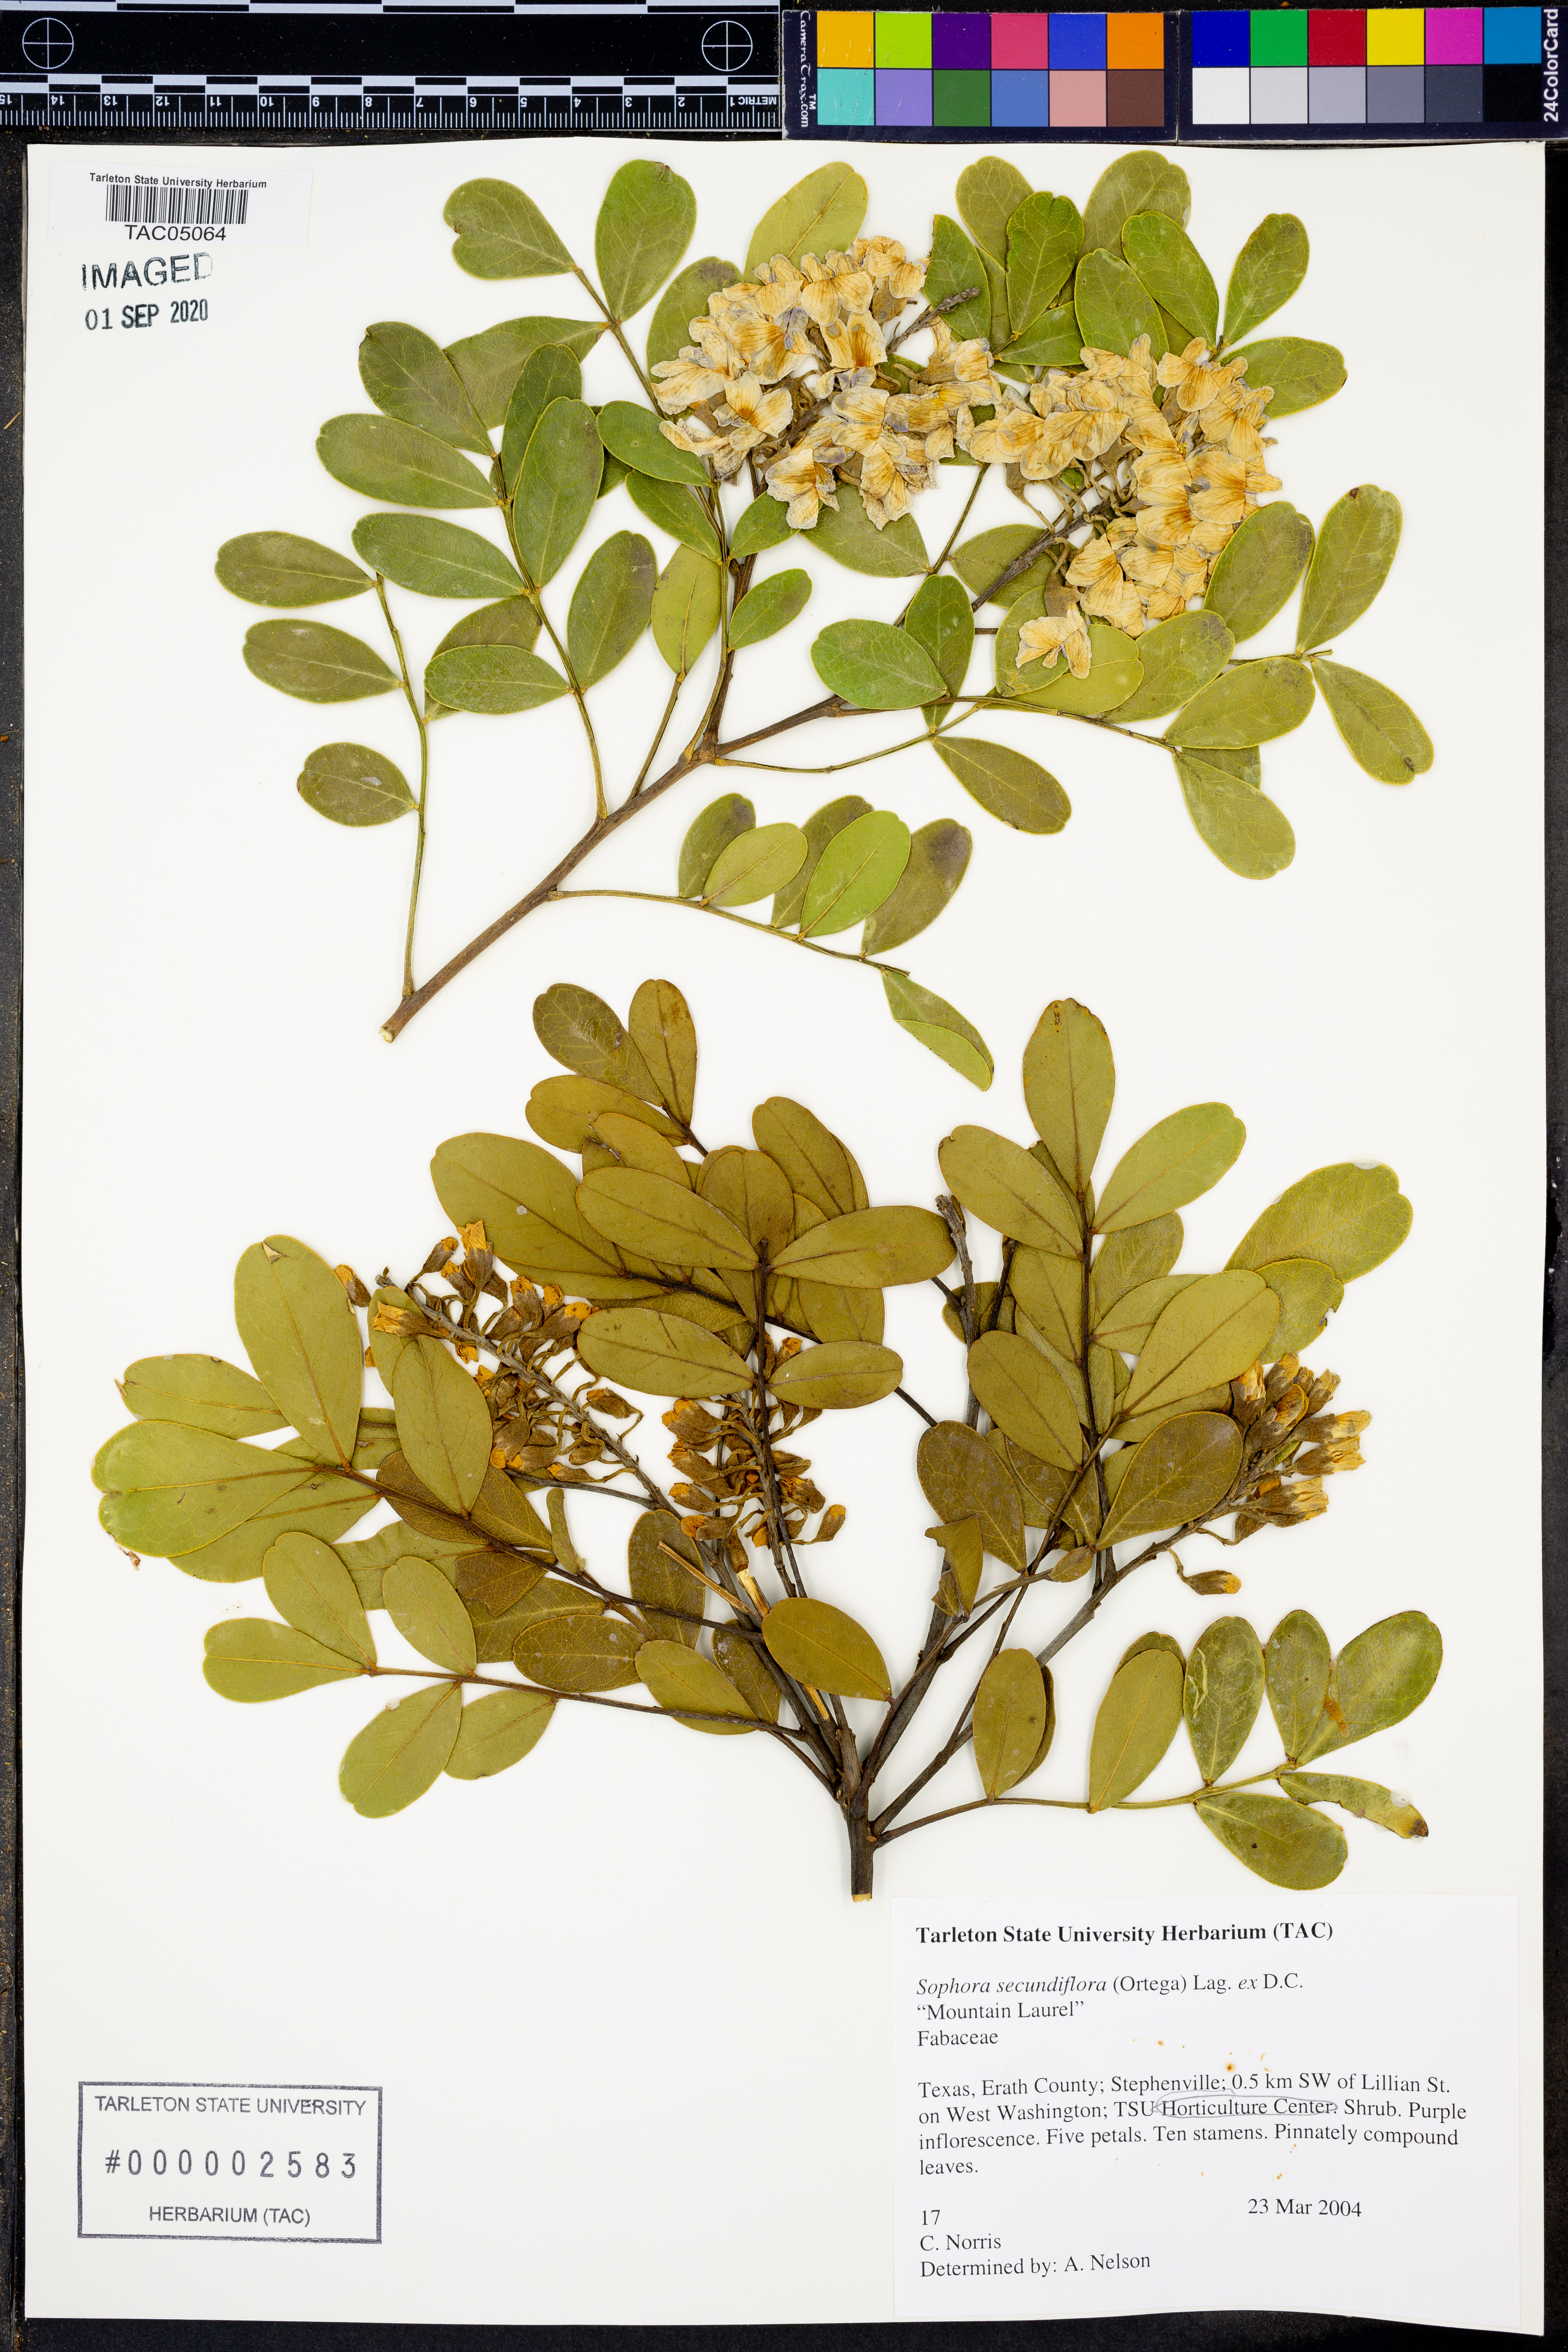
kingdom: Plantae
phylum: Tracheophyta
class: Magnoliopsida
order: Fabales
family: Fabaceae
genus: Dermatophyllum
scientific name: Dermatophyllum secundiflorum
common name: Texas-mountain-laurel
